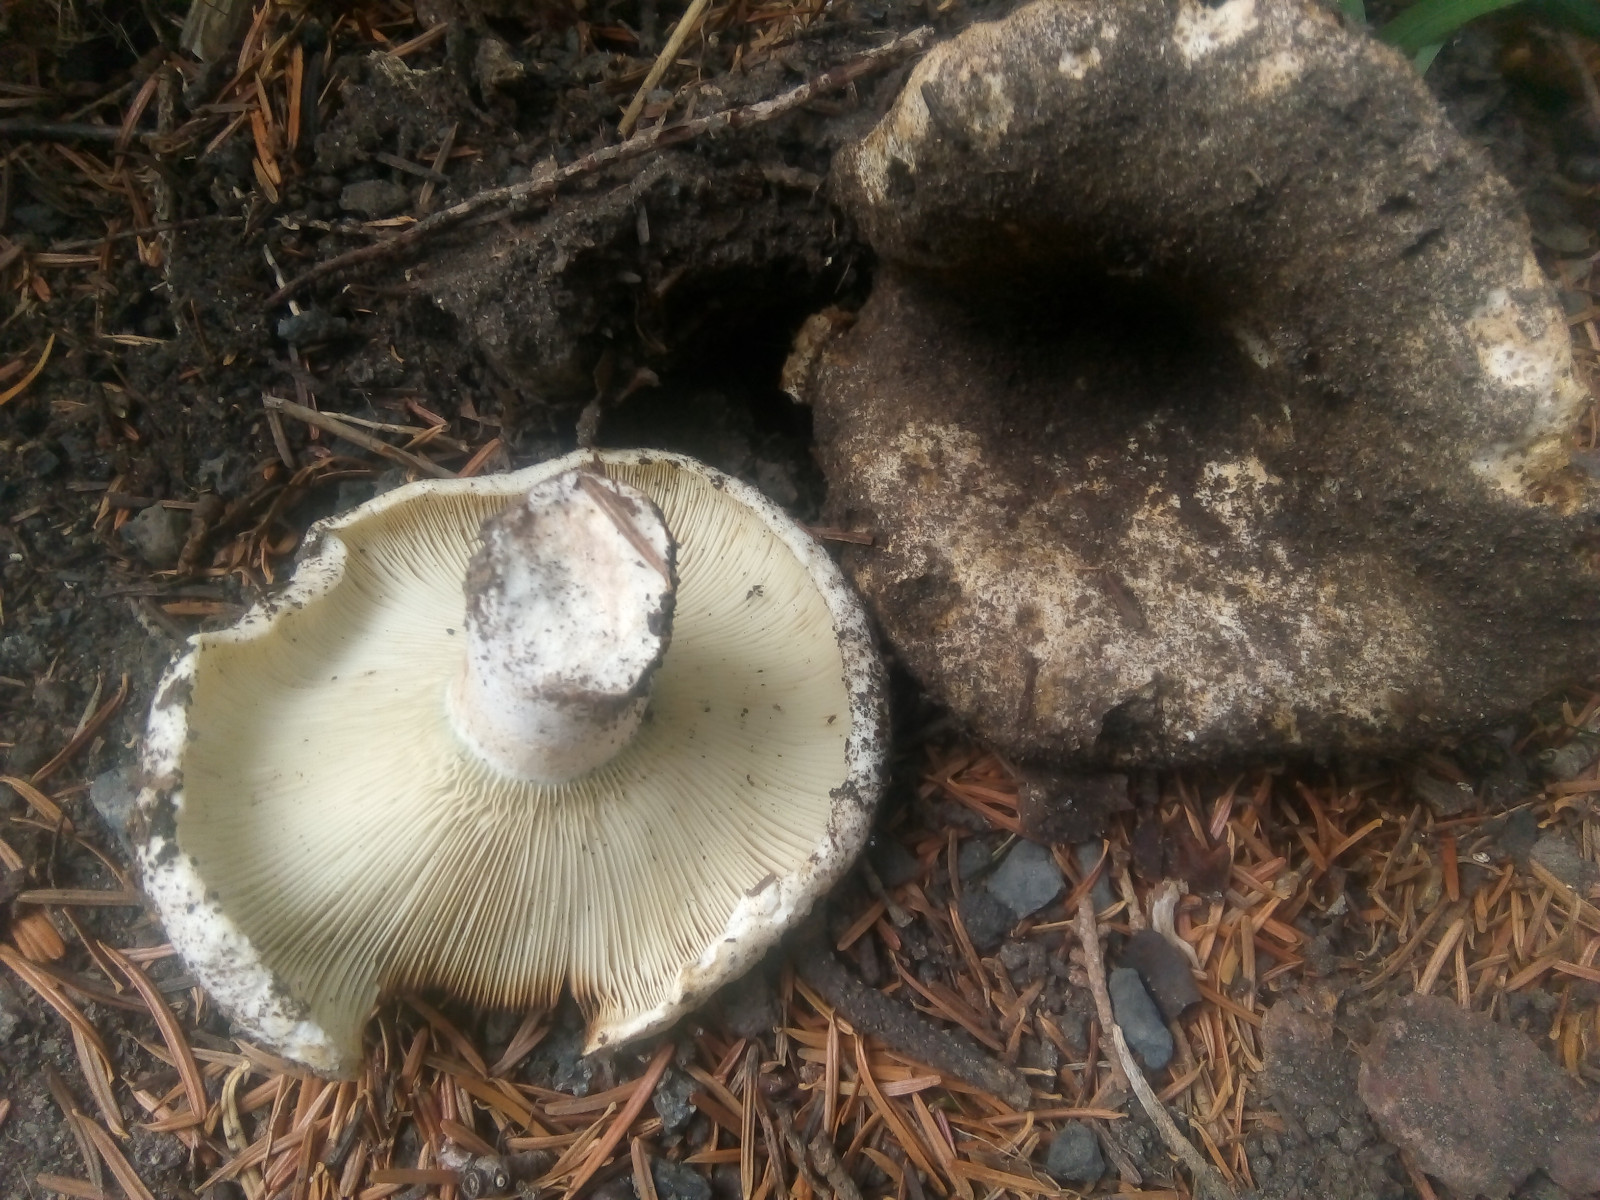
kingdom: Fungi
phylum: Basidiomycota
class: Agaricomycetes
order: Russulales
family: Russulaceae
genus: Russula
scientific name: Russula chloroides
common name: grønhalset tragt-skørhat
